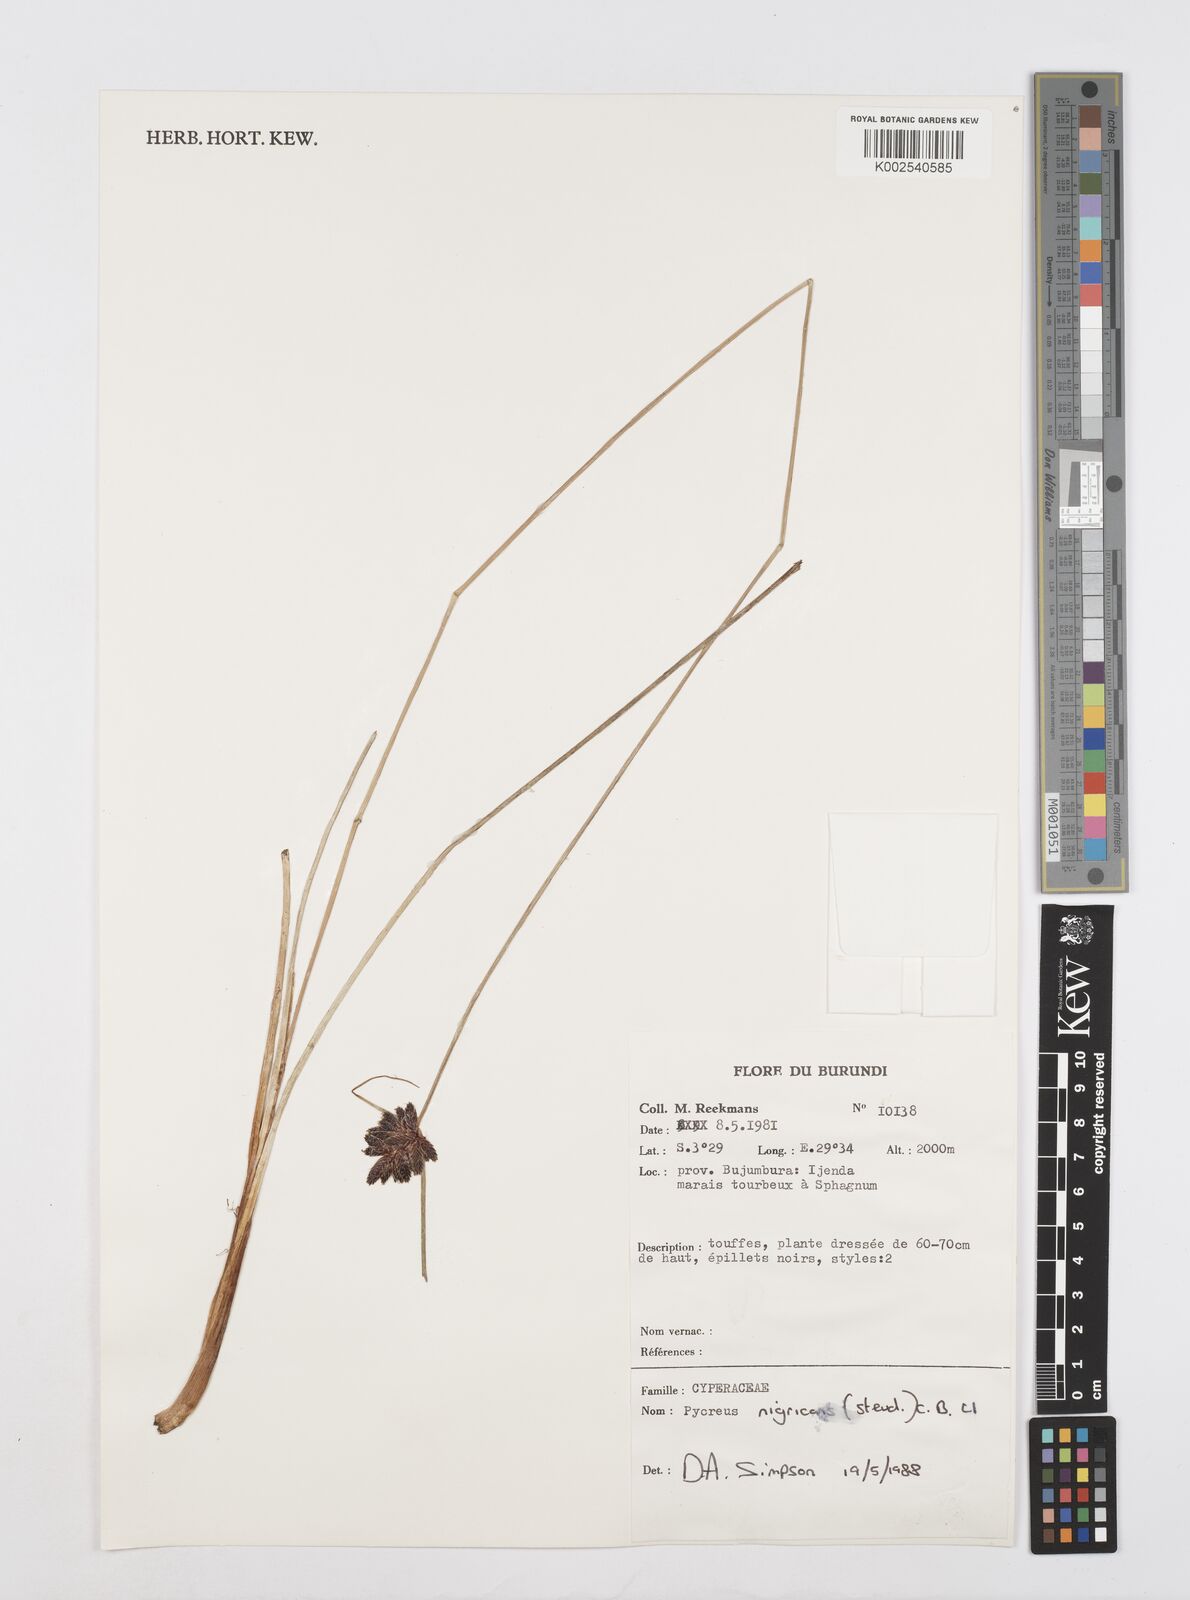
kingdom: Plantae
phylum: Tracheophyta
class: Liliopsida
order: Poales
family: Cyperaceae
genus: Cyperus
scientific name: Cyperus nigricans
